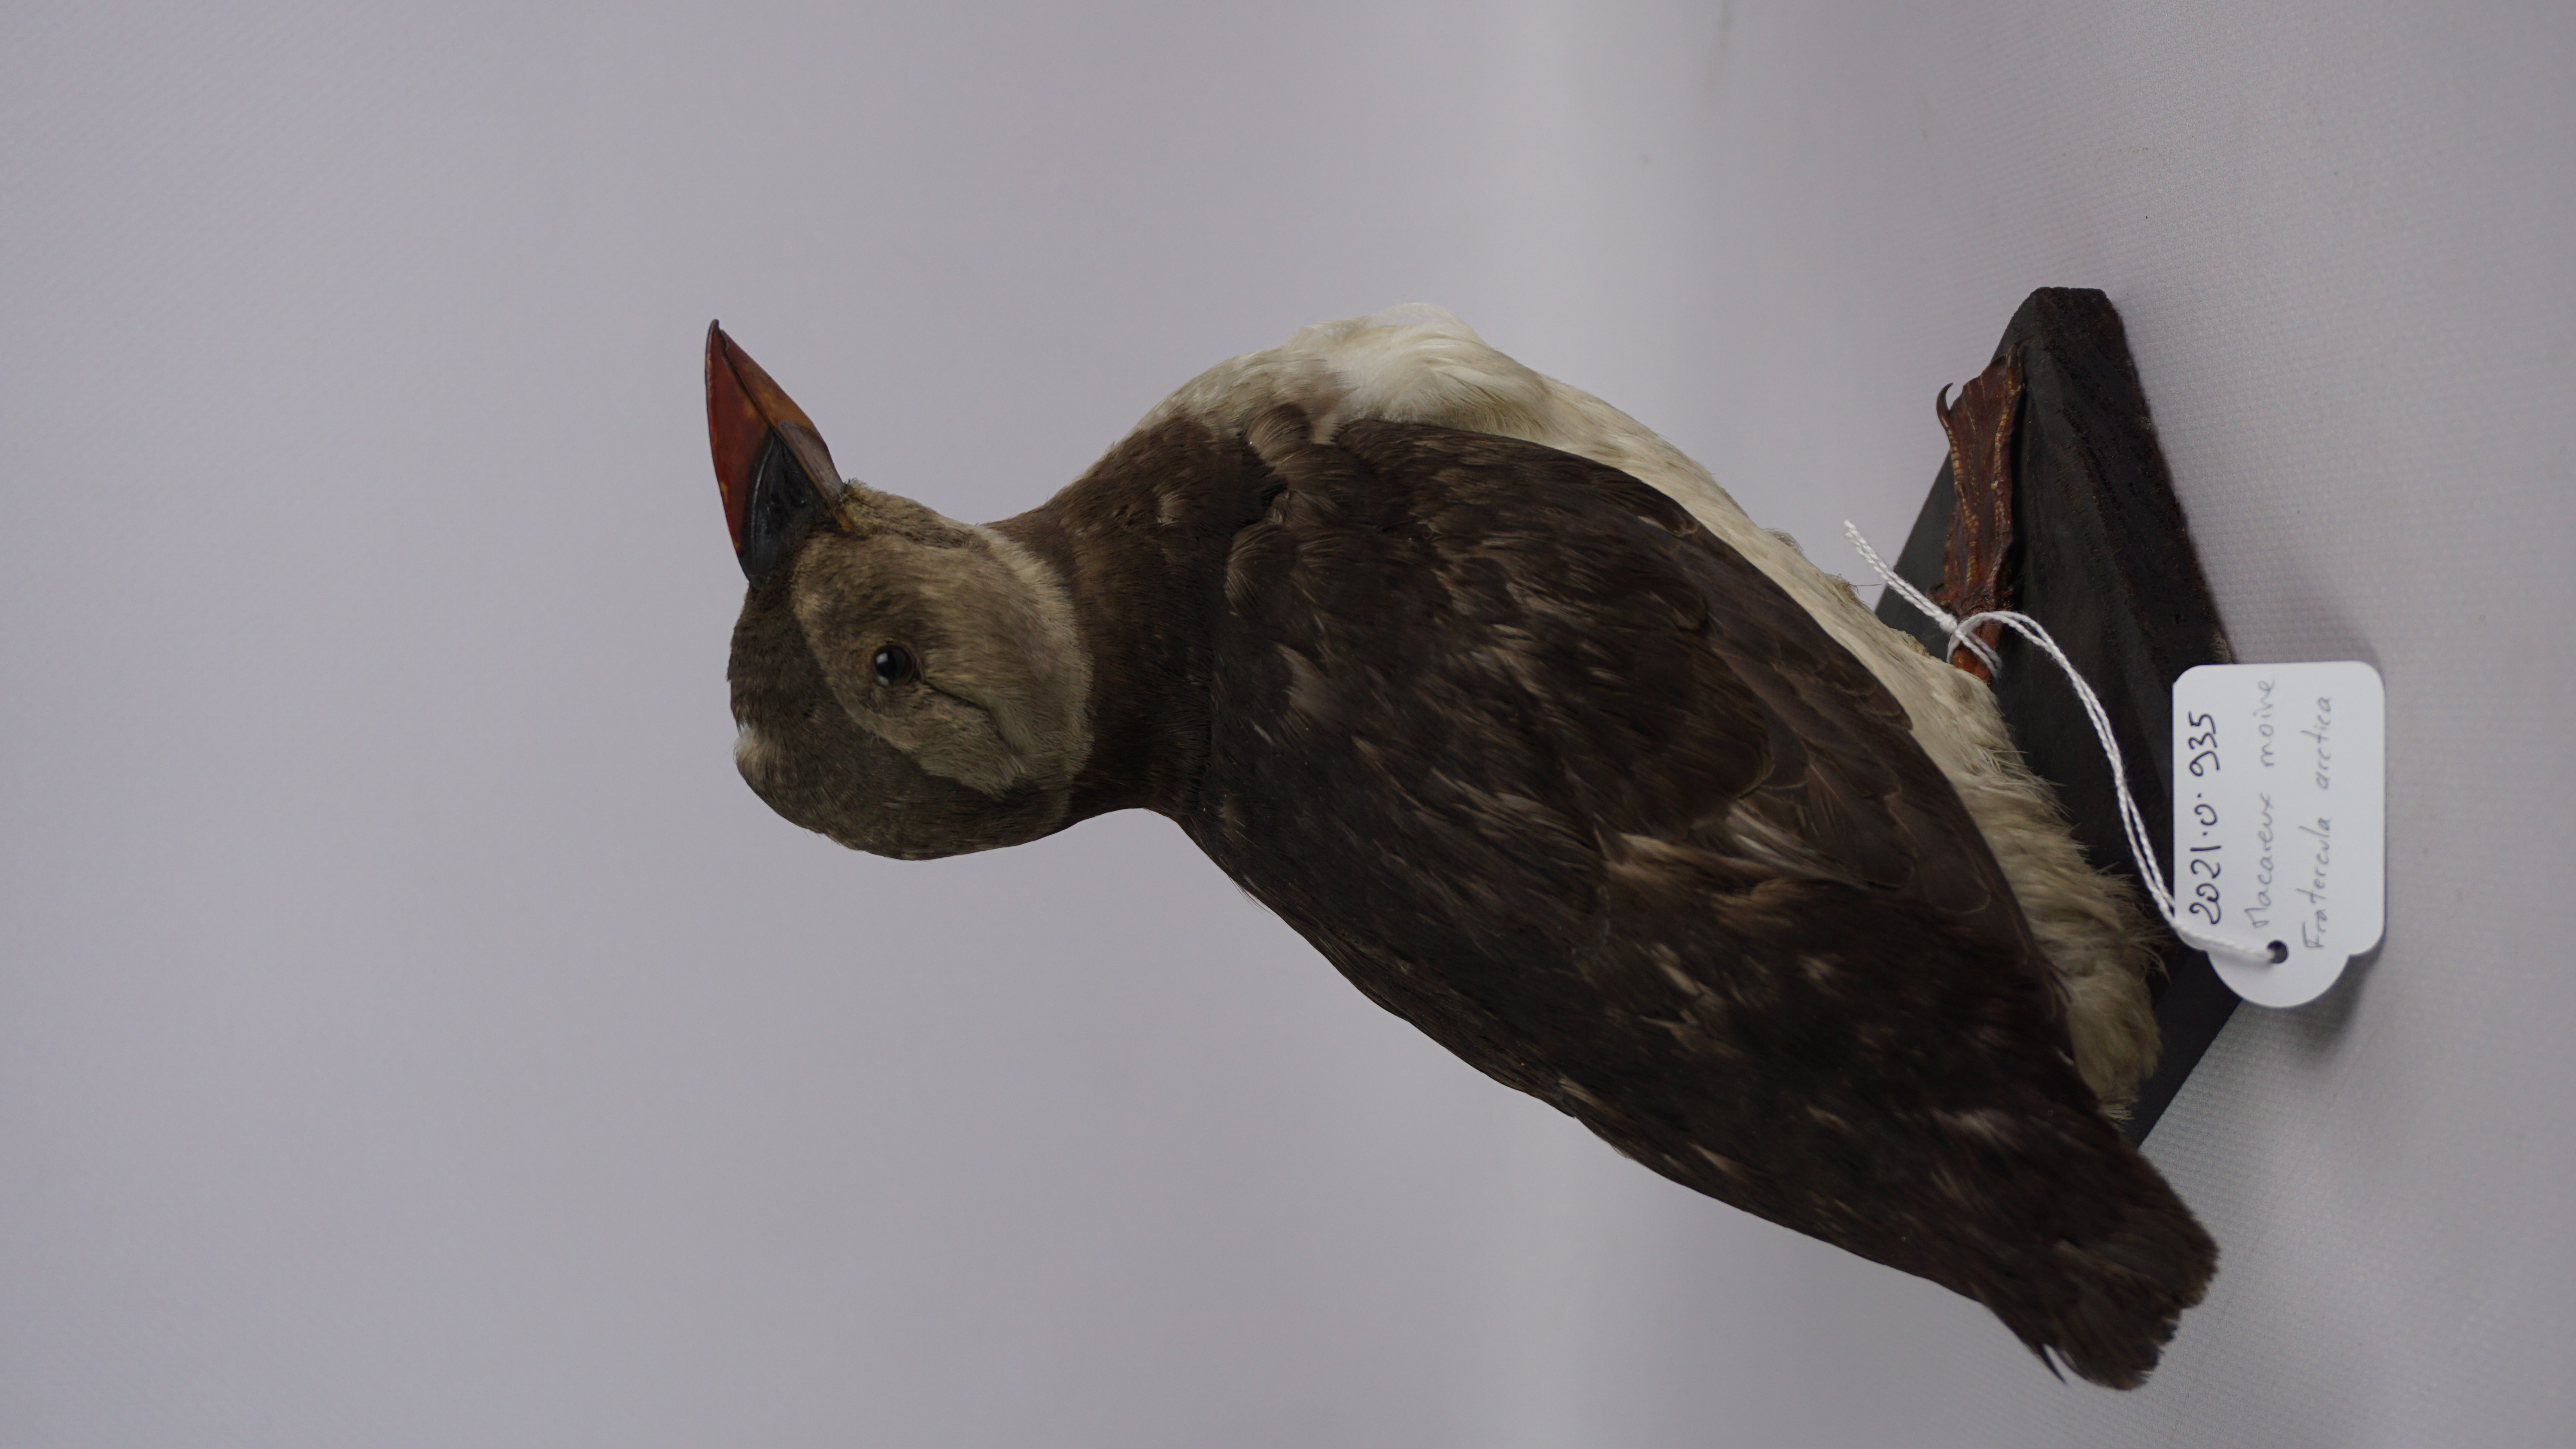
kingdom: Animalia
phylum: Chordata
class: Aves
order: Charadriiformes
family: Alcidae
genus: Fratercula
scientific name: Fratercula arctica
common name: Atlantic puffin
